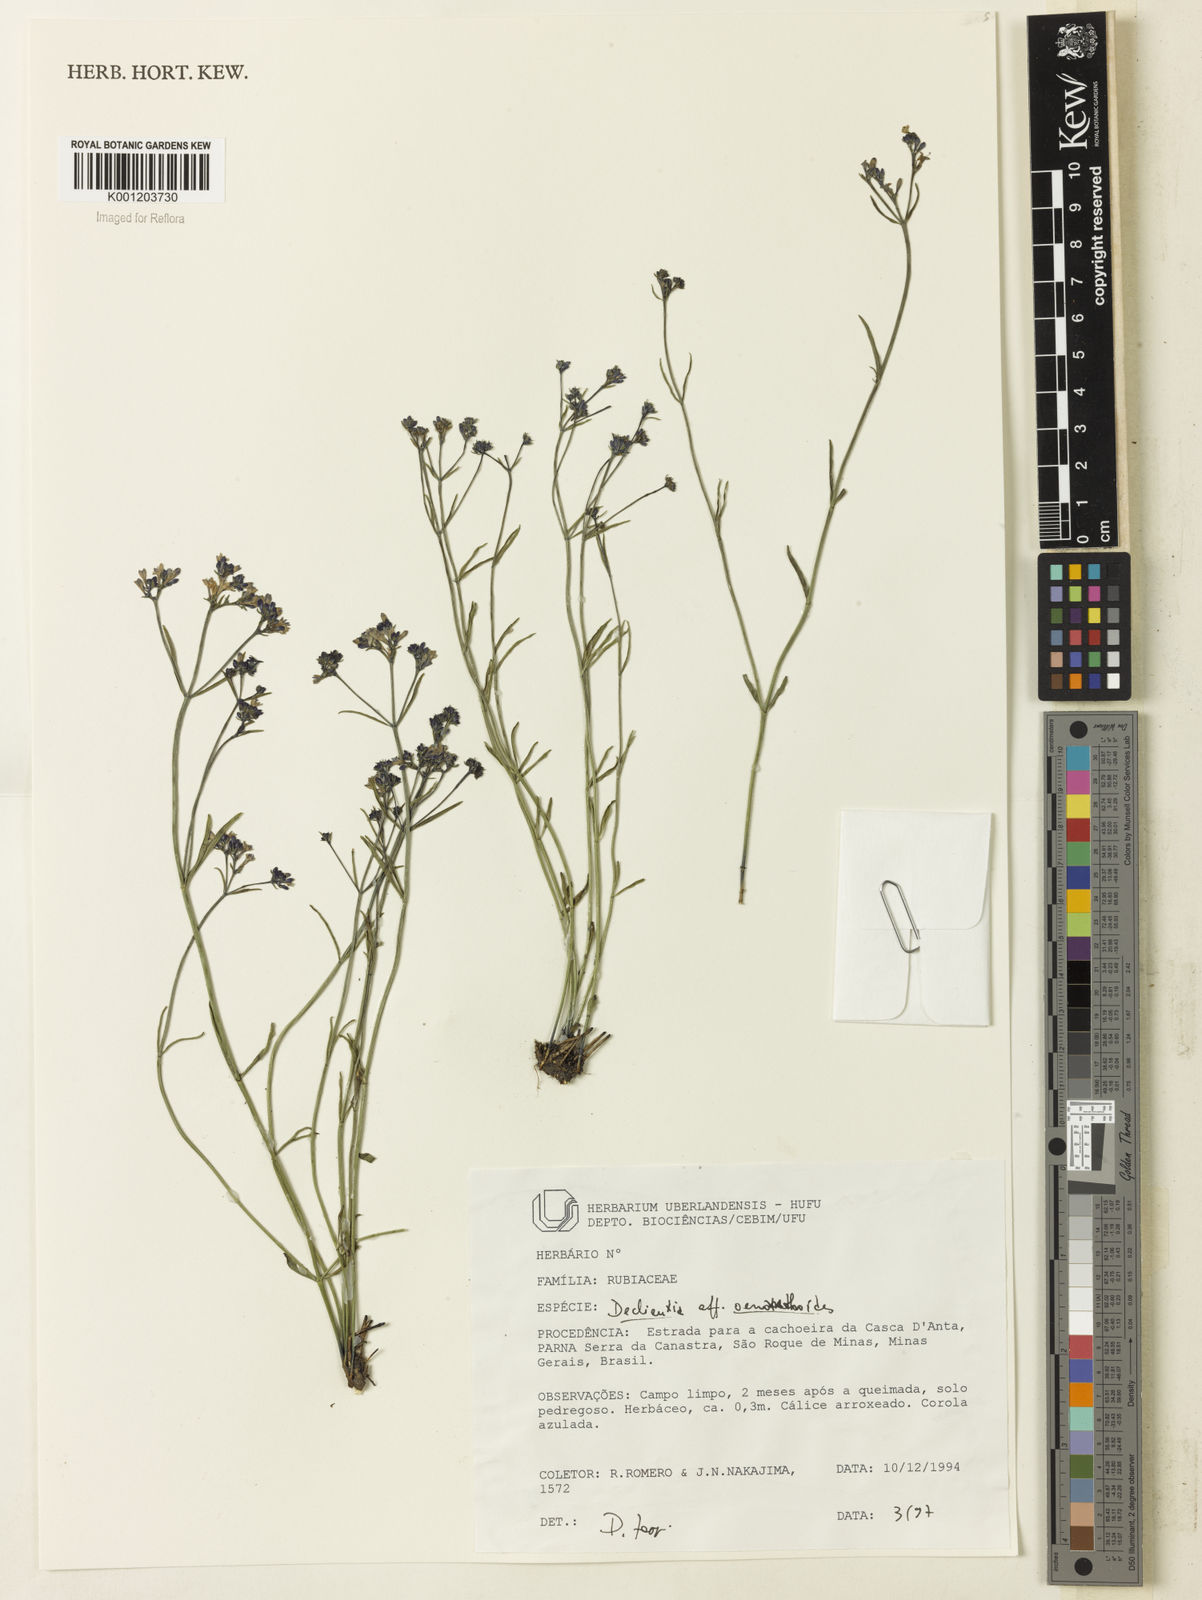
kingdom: Plantae
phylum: Tracheophyta
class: Magnoliopsida
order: Gentianales
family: Rubiaceae
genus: Declieuxia
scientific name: Declieuxia
